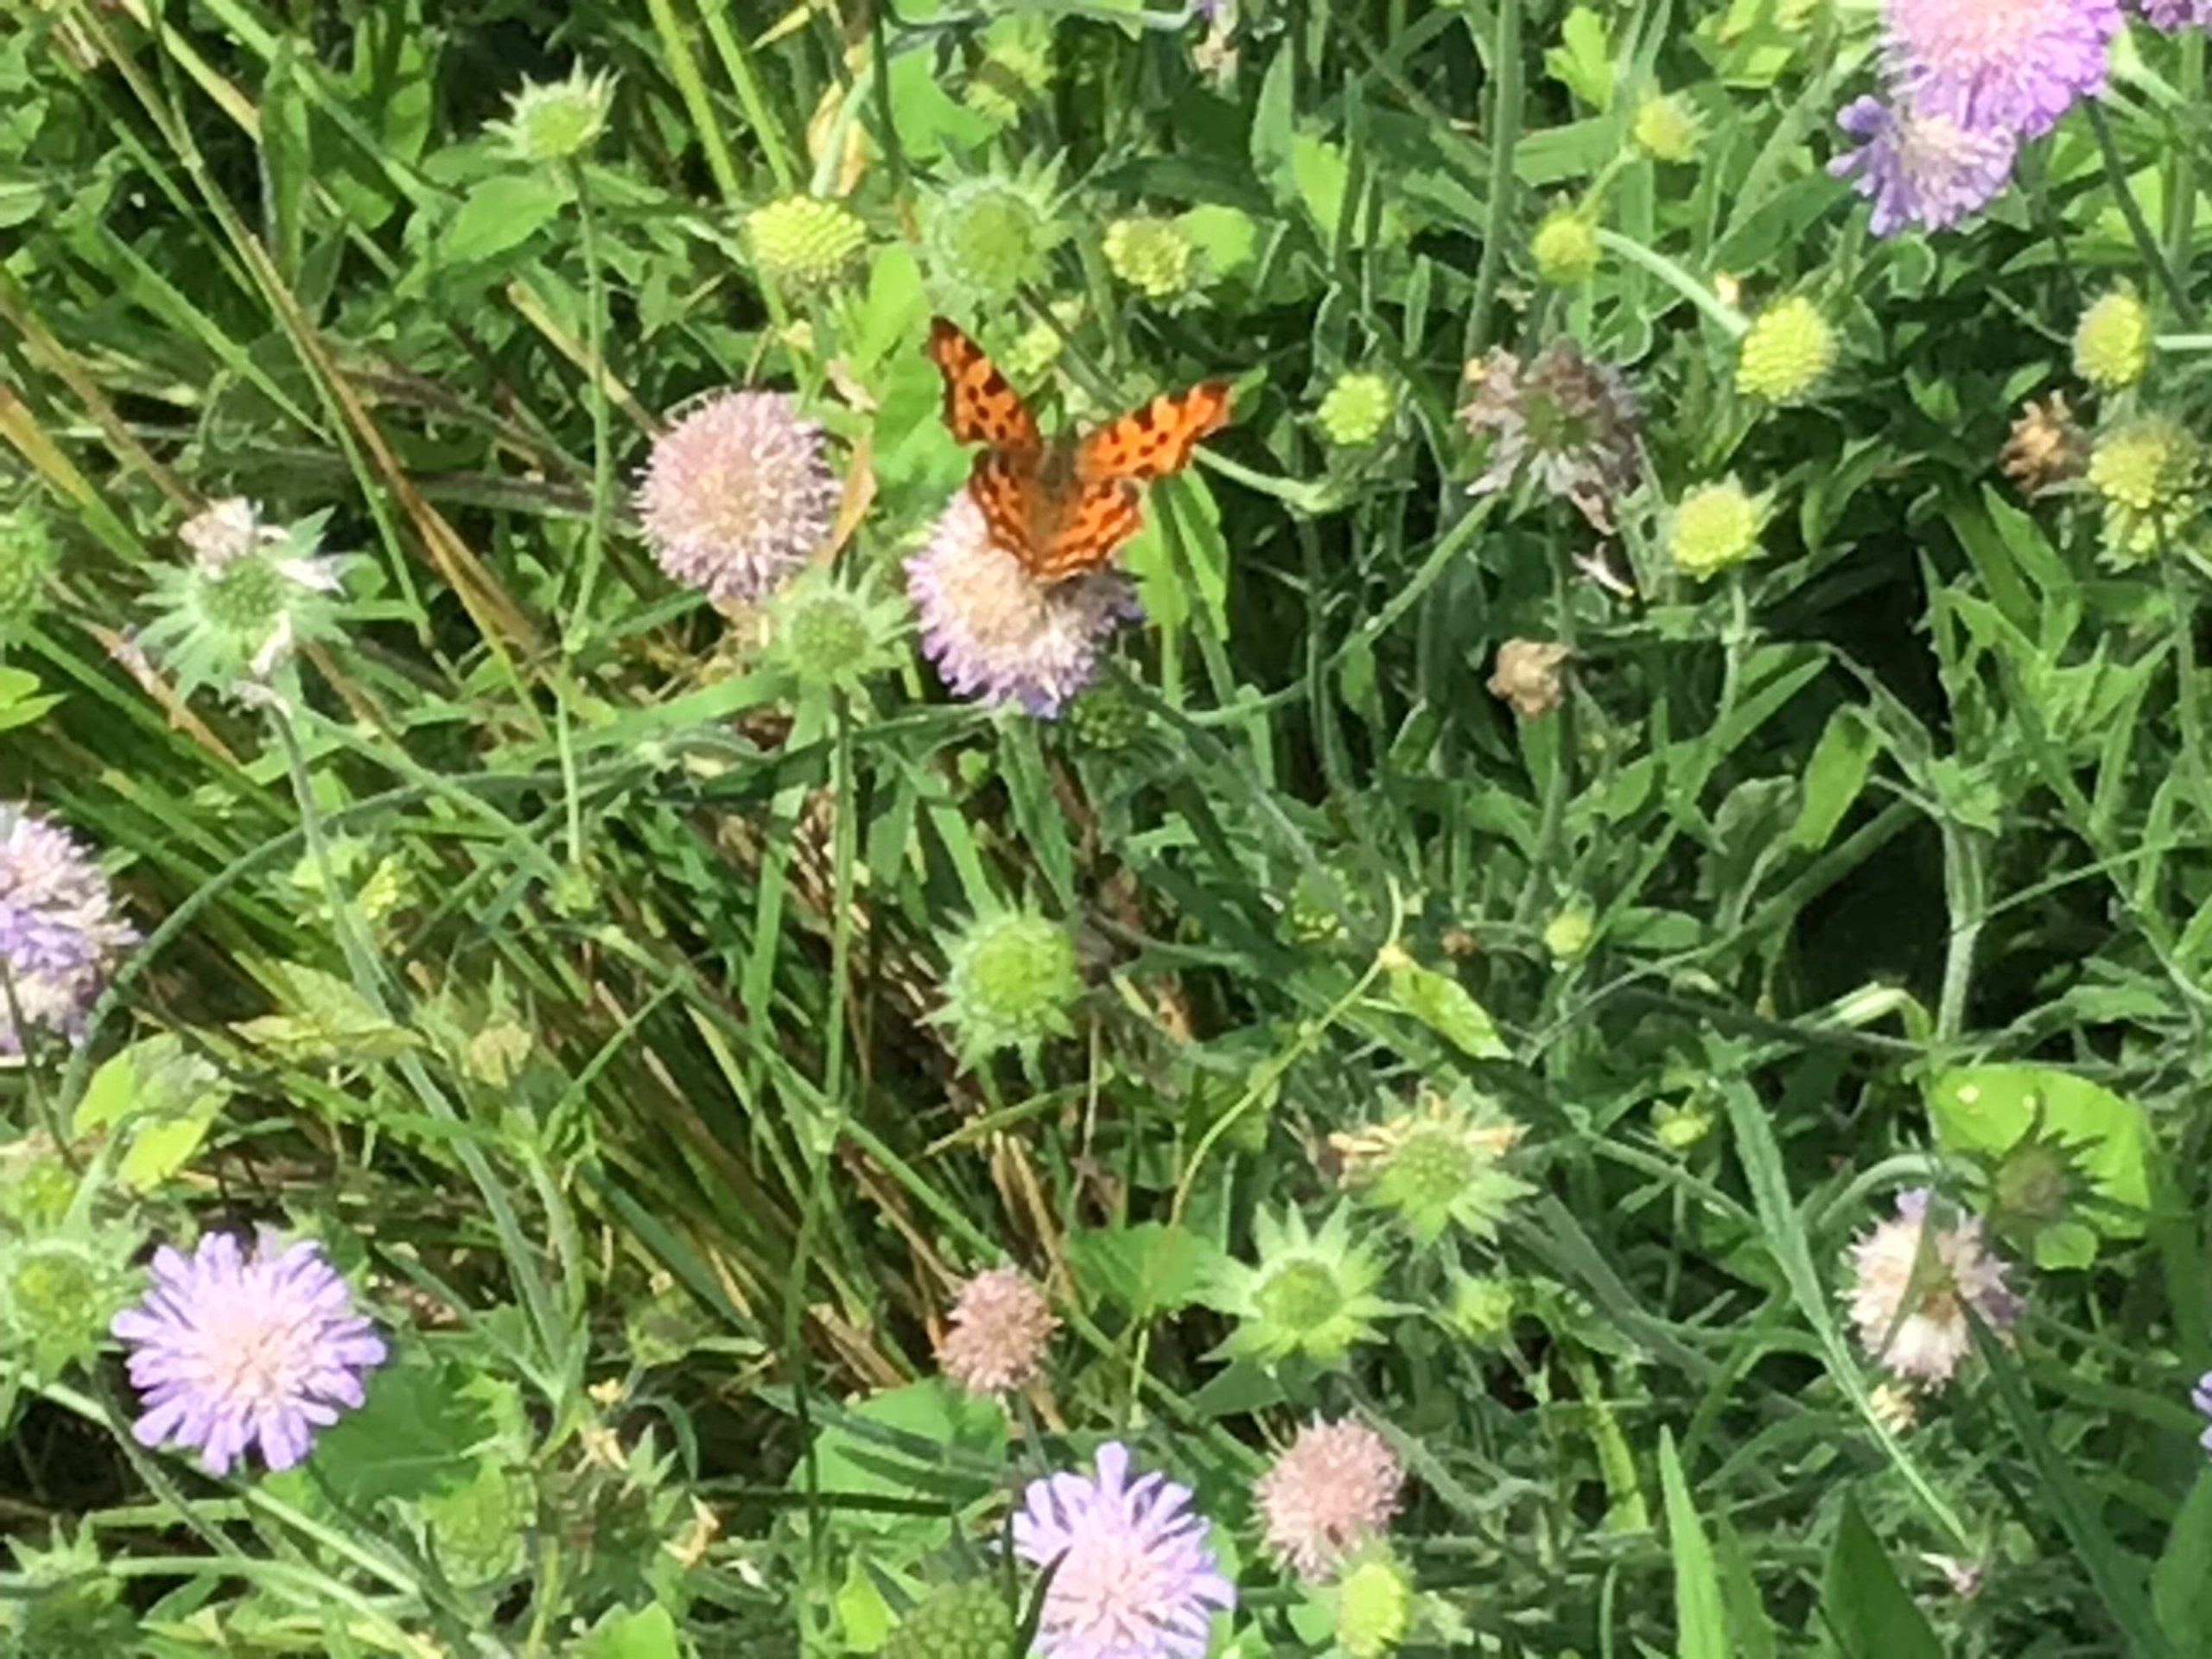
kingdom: Animalia
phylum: Arthropoda
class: Insecta
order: Lepidoptera
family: Nymphalidae
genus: Polygonia
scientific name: Polygonia c-album
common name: Det hvide C
